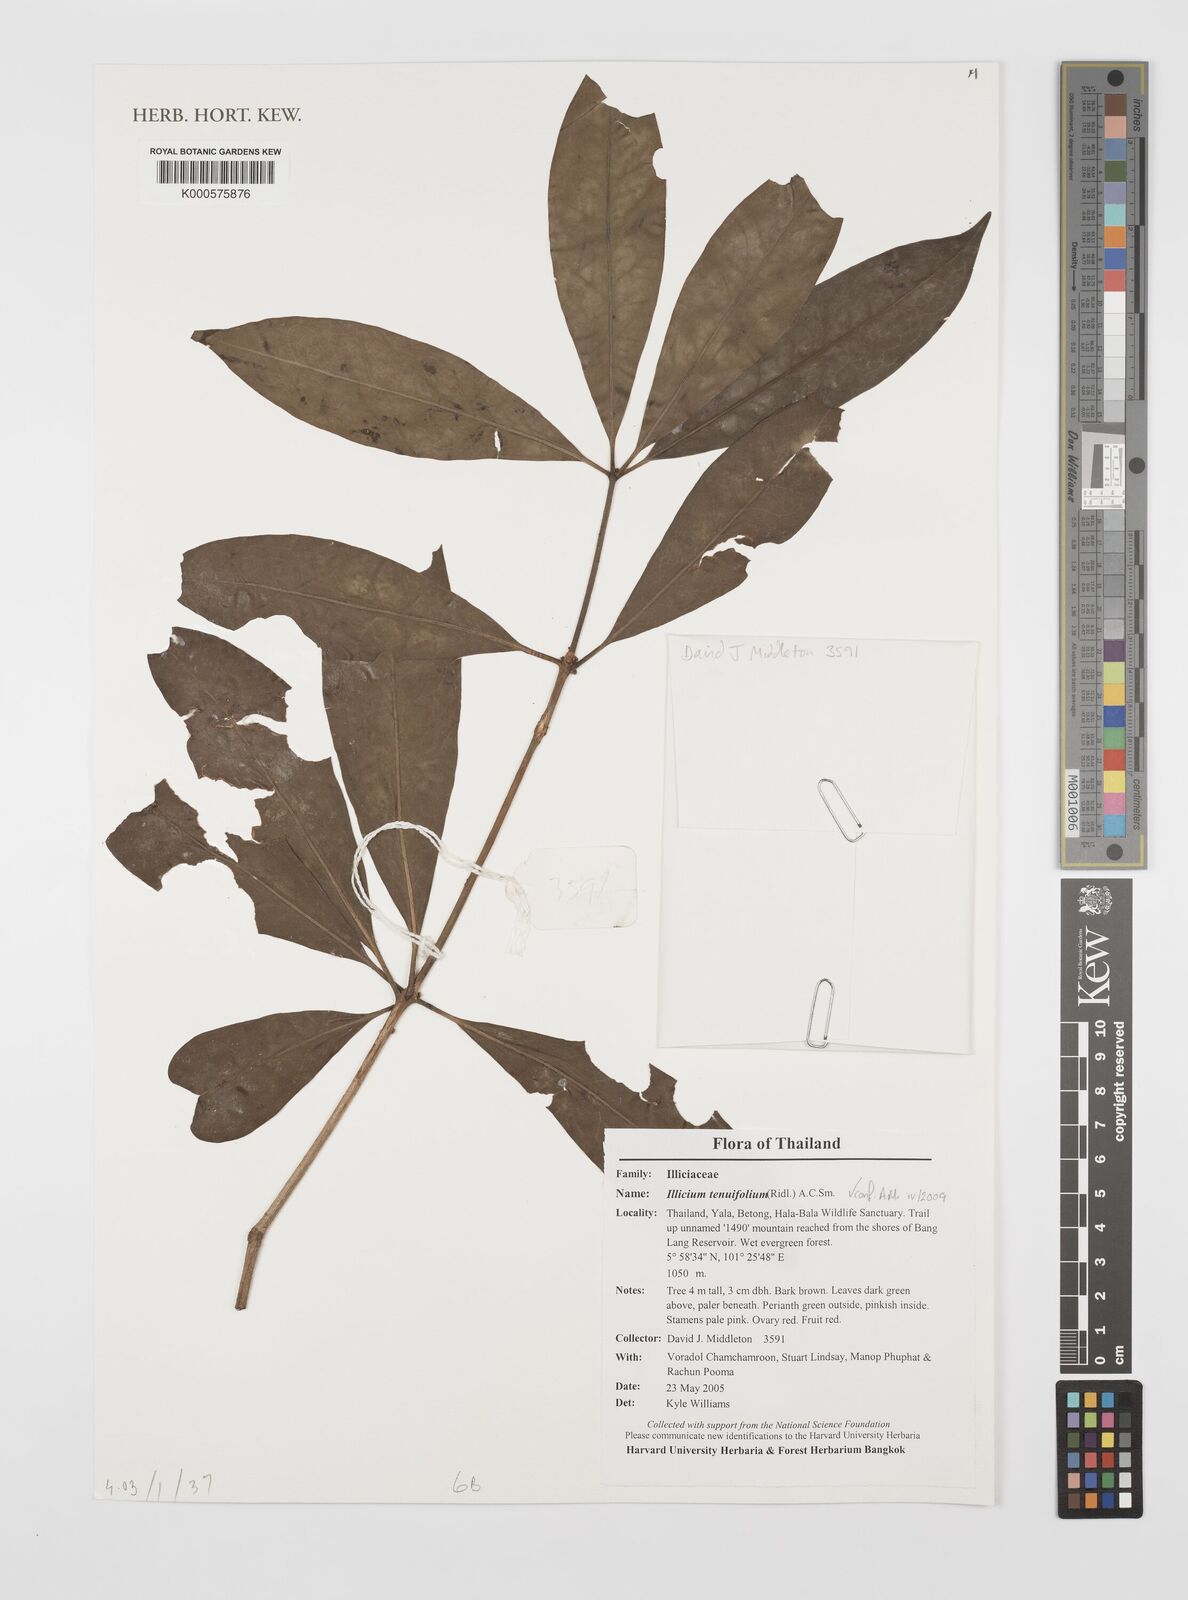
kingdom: Plantae
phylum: Tracheophyta
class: Magnoliopsida
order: Austrobaileyales
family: Schisandraceae
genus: Illicium
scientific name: Illicium tenuifolium
